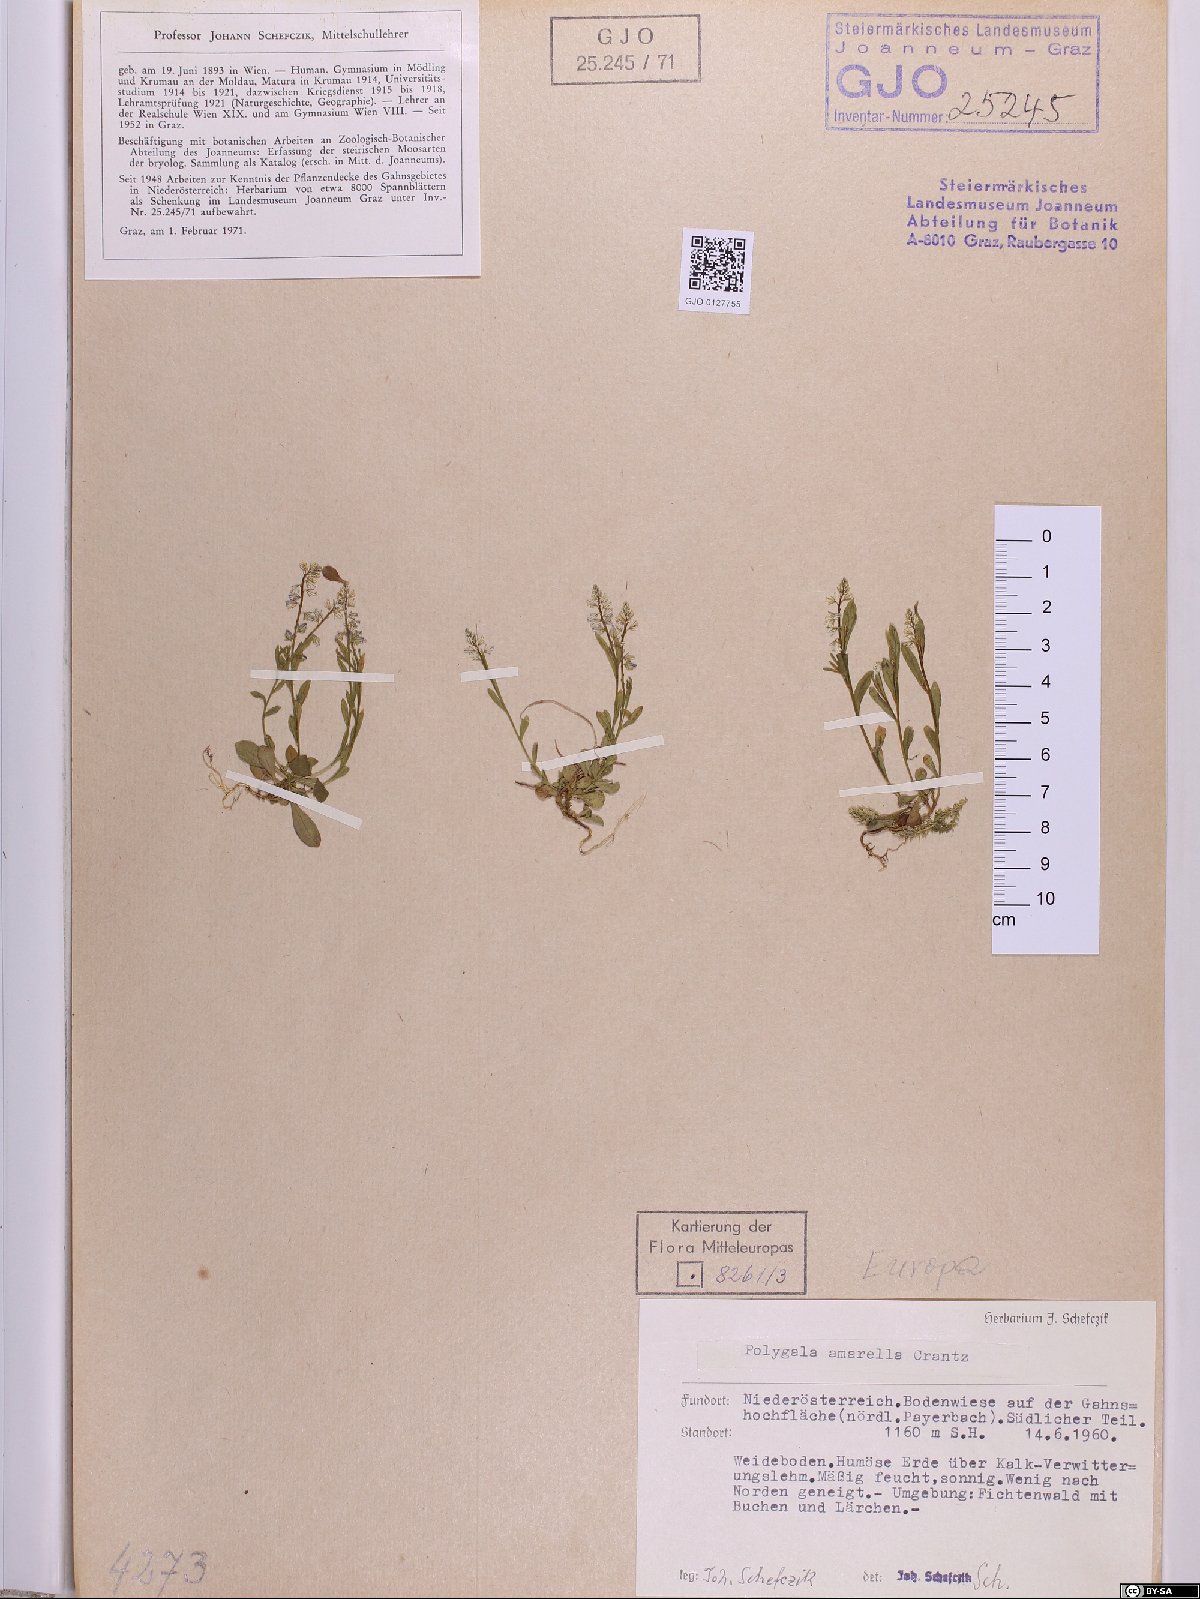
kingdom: Plantae
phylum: Tracheophyta
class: Magnoliopsida
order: Fabales
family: Polygalaceae
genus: Polygala
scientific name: Polygala amarella
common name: Dwarf milkwort
